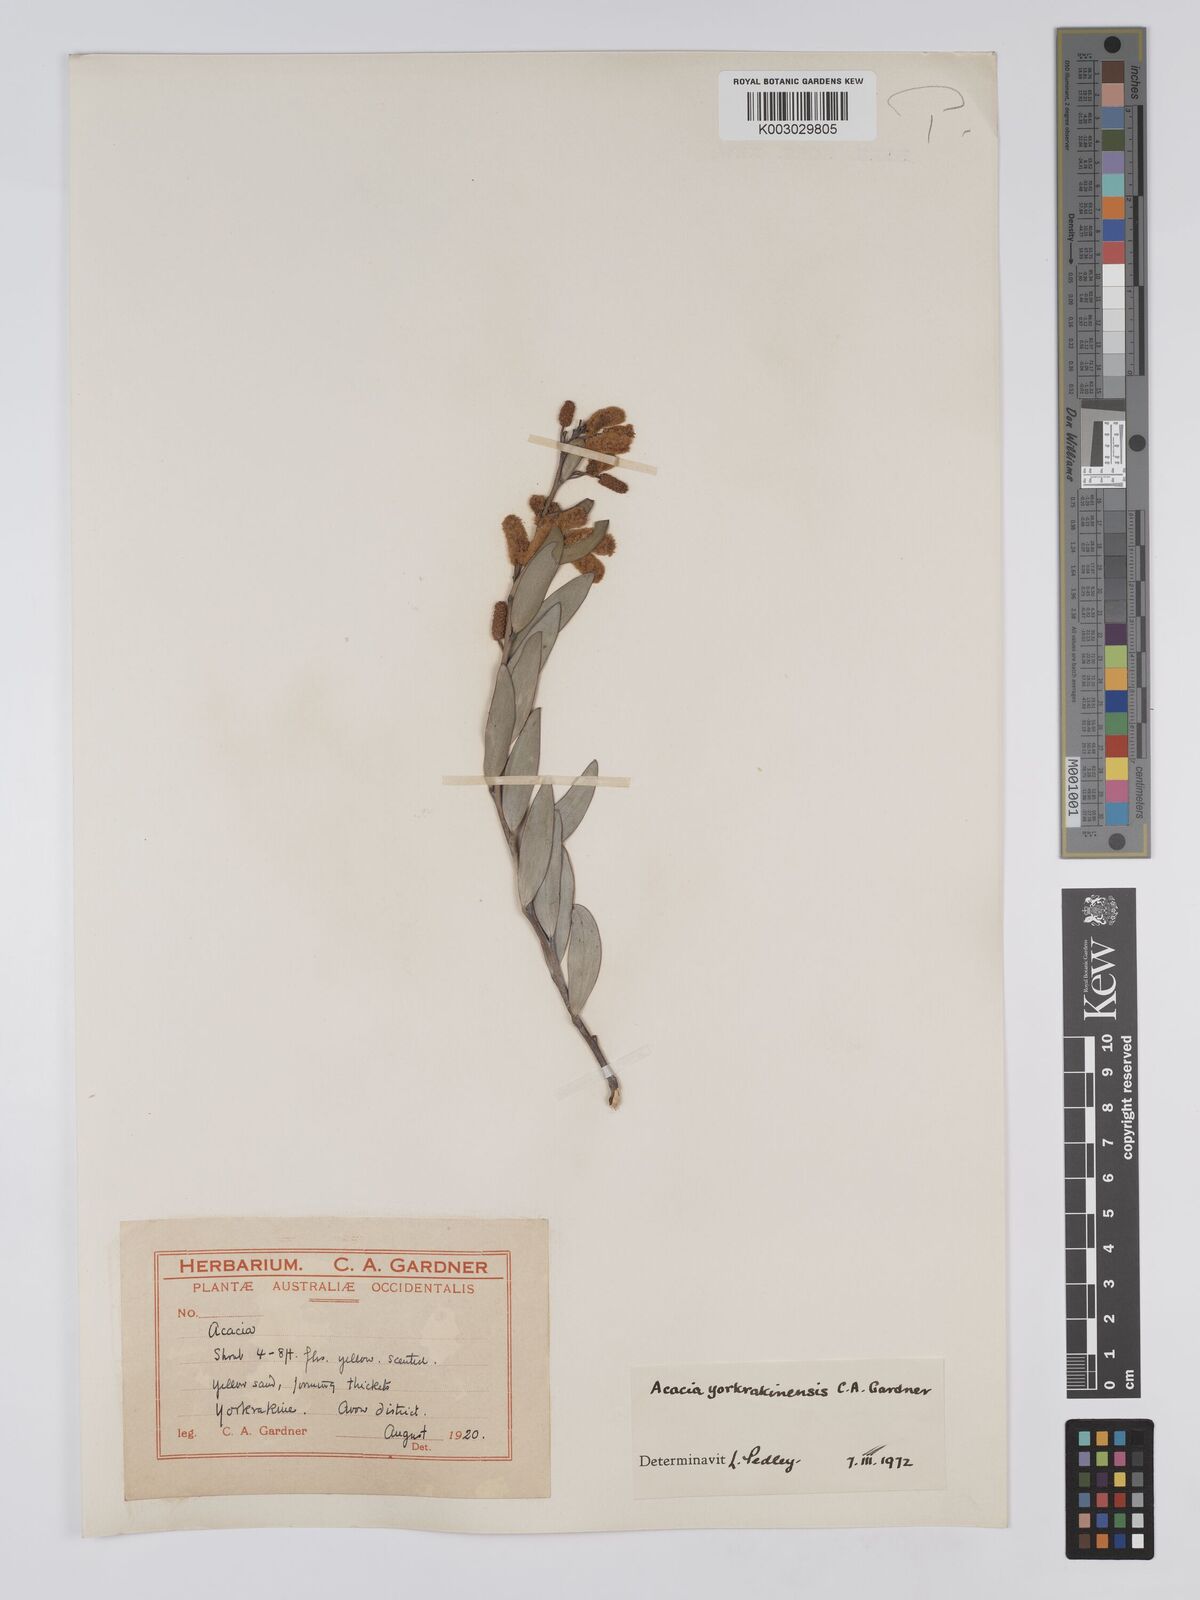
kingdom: Plantae
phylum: Tracheophyta
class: Magnoliopsida
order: Fabales
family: Fabaceae
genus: Acacia
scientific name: Acacia yorkrakinensis
